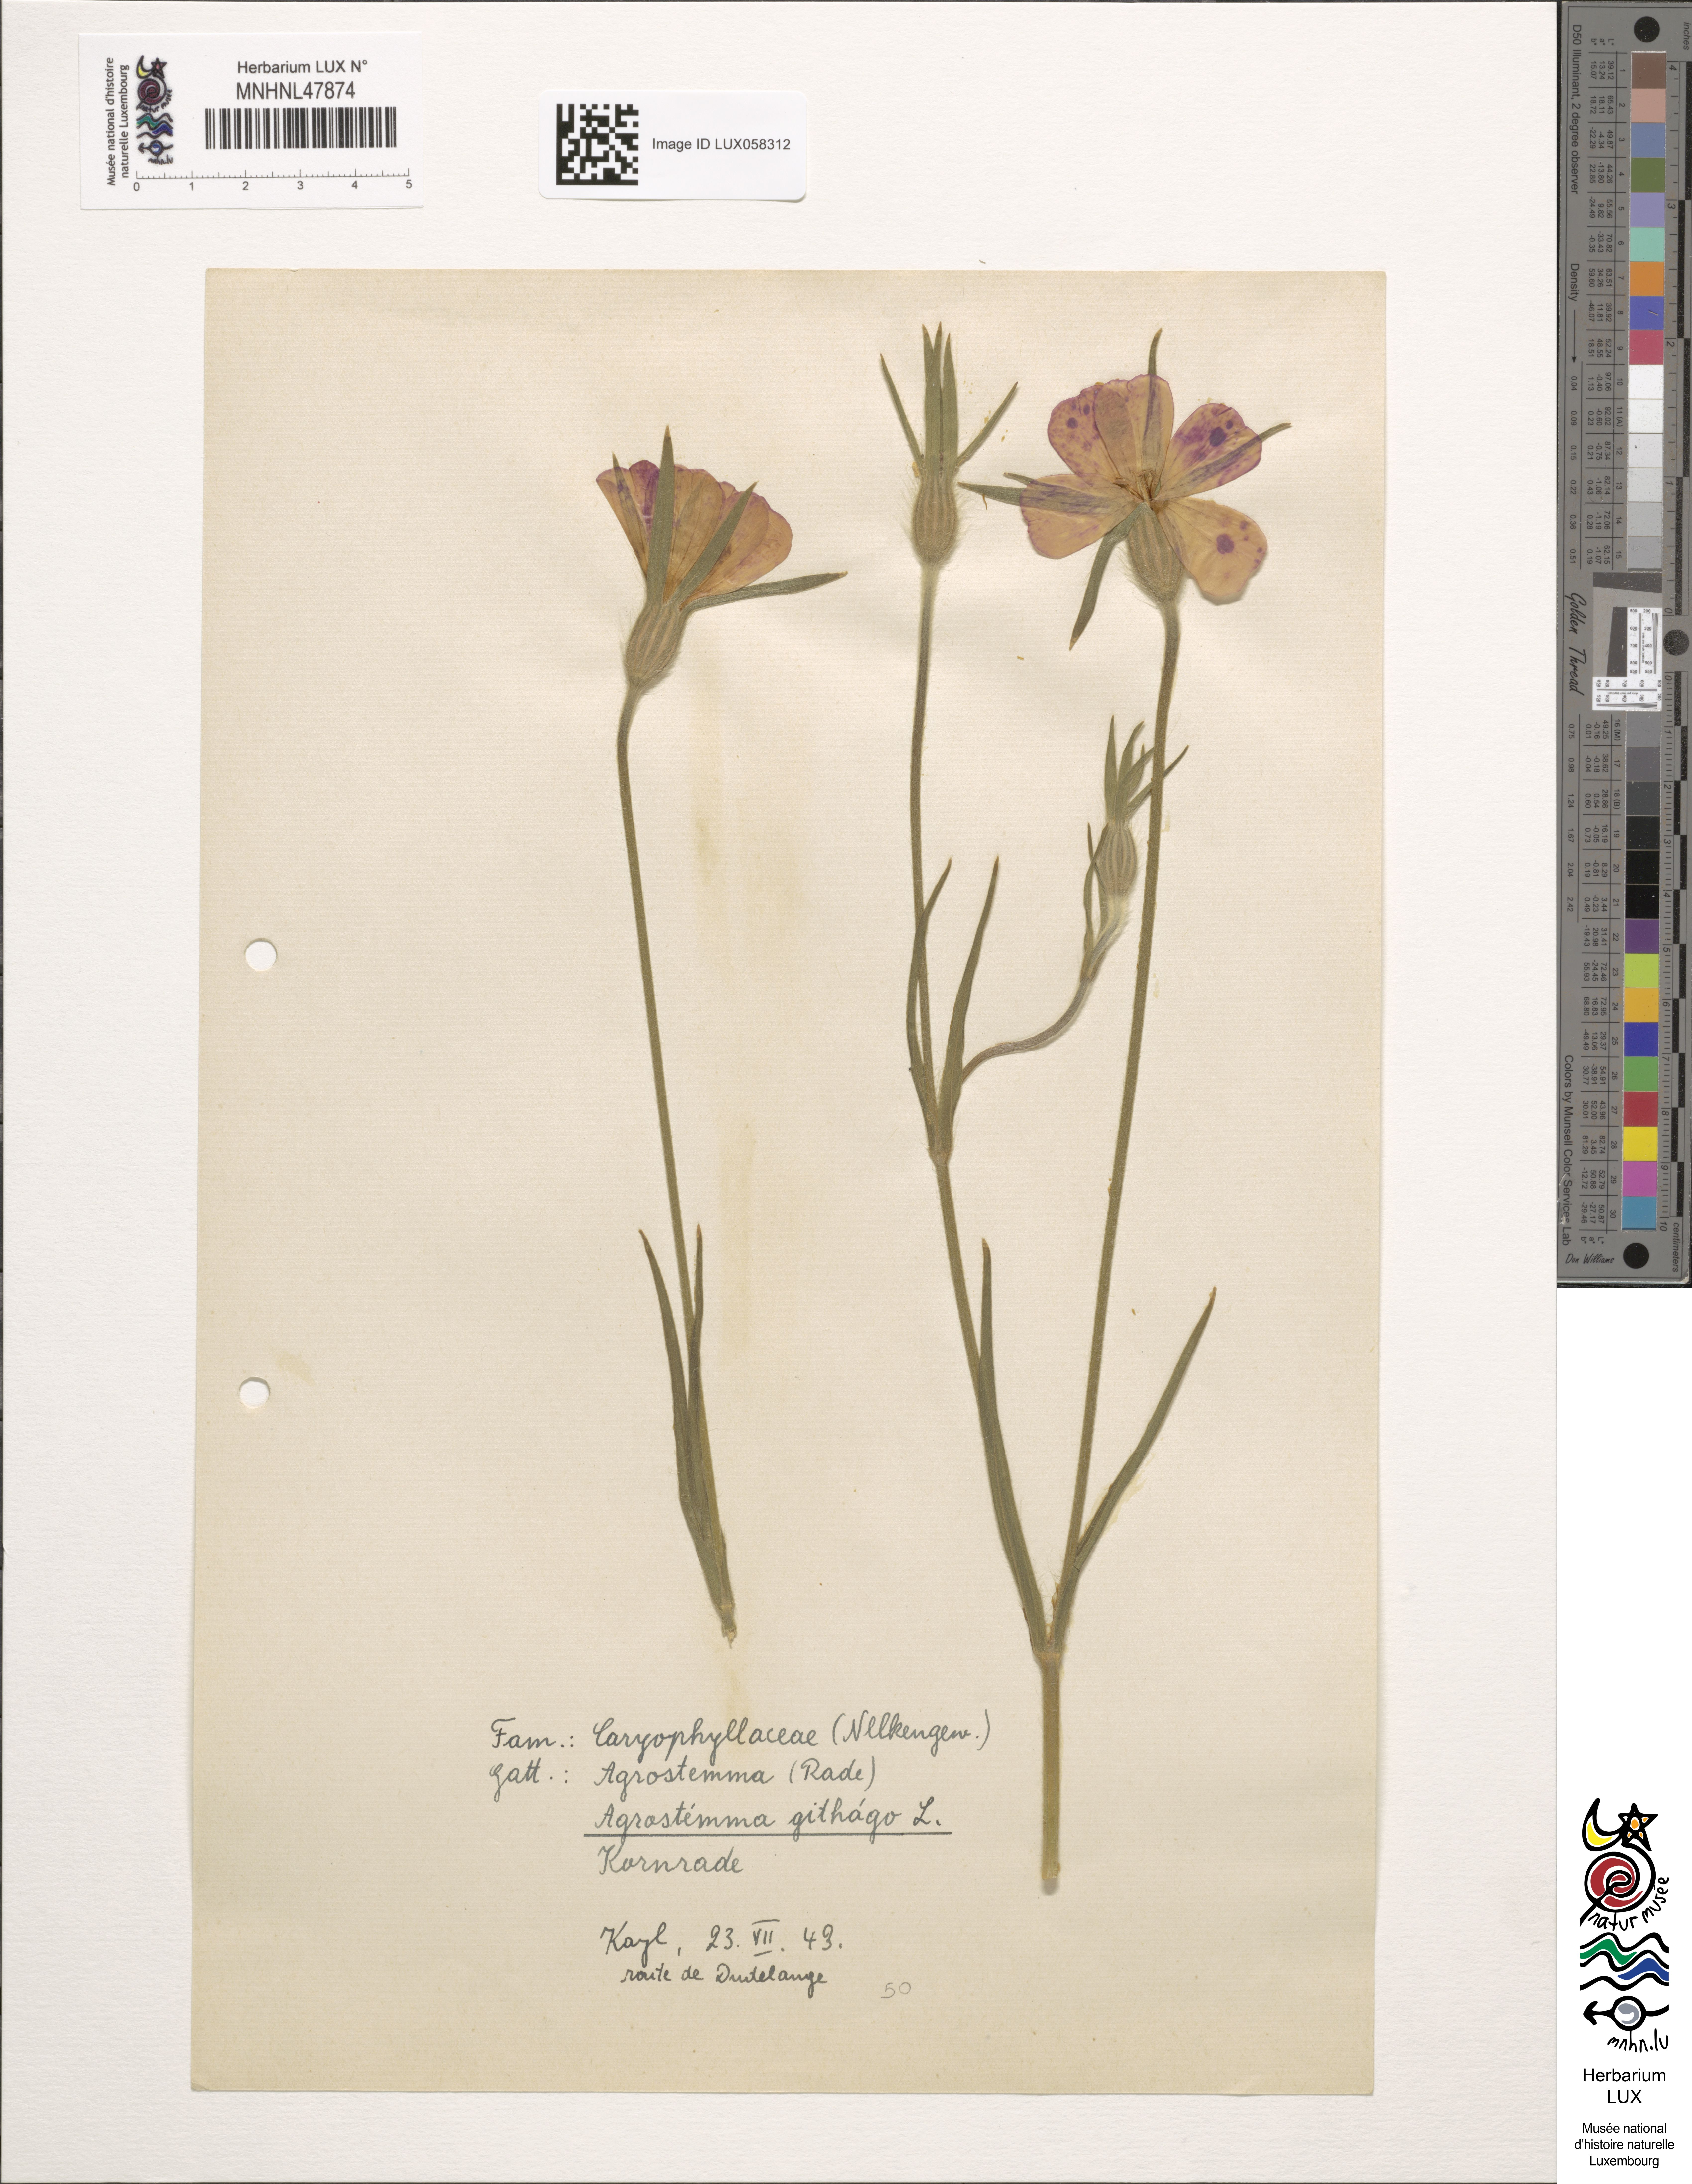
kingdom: Plantae
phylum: Tracheophyta
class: Magnoliopsida
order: Caryophyllales
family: Caryophyllaceae
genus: Agrostemma
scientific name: Agrostemma githago
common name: Common corncockle
